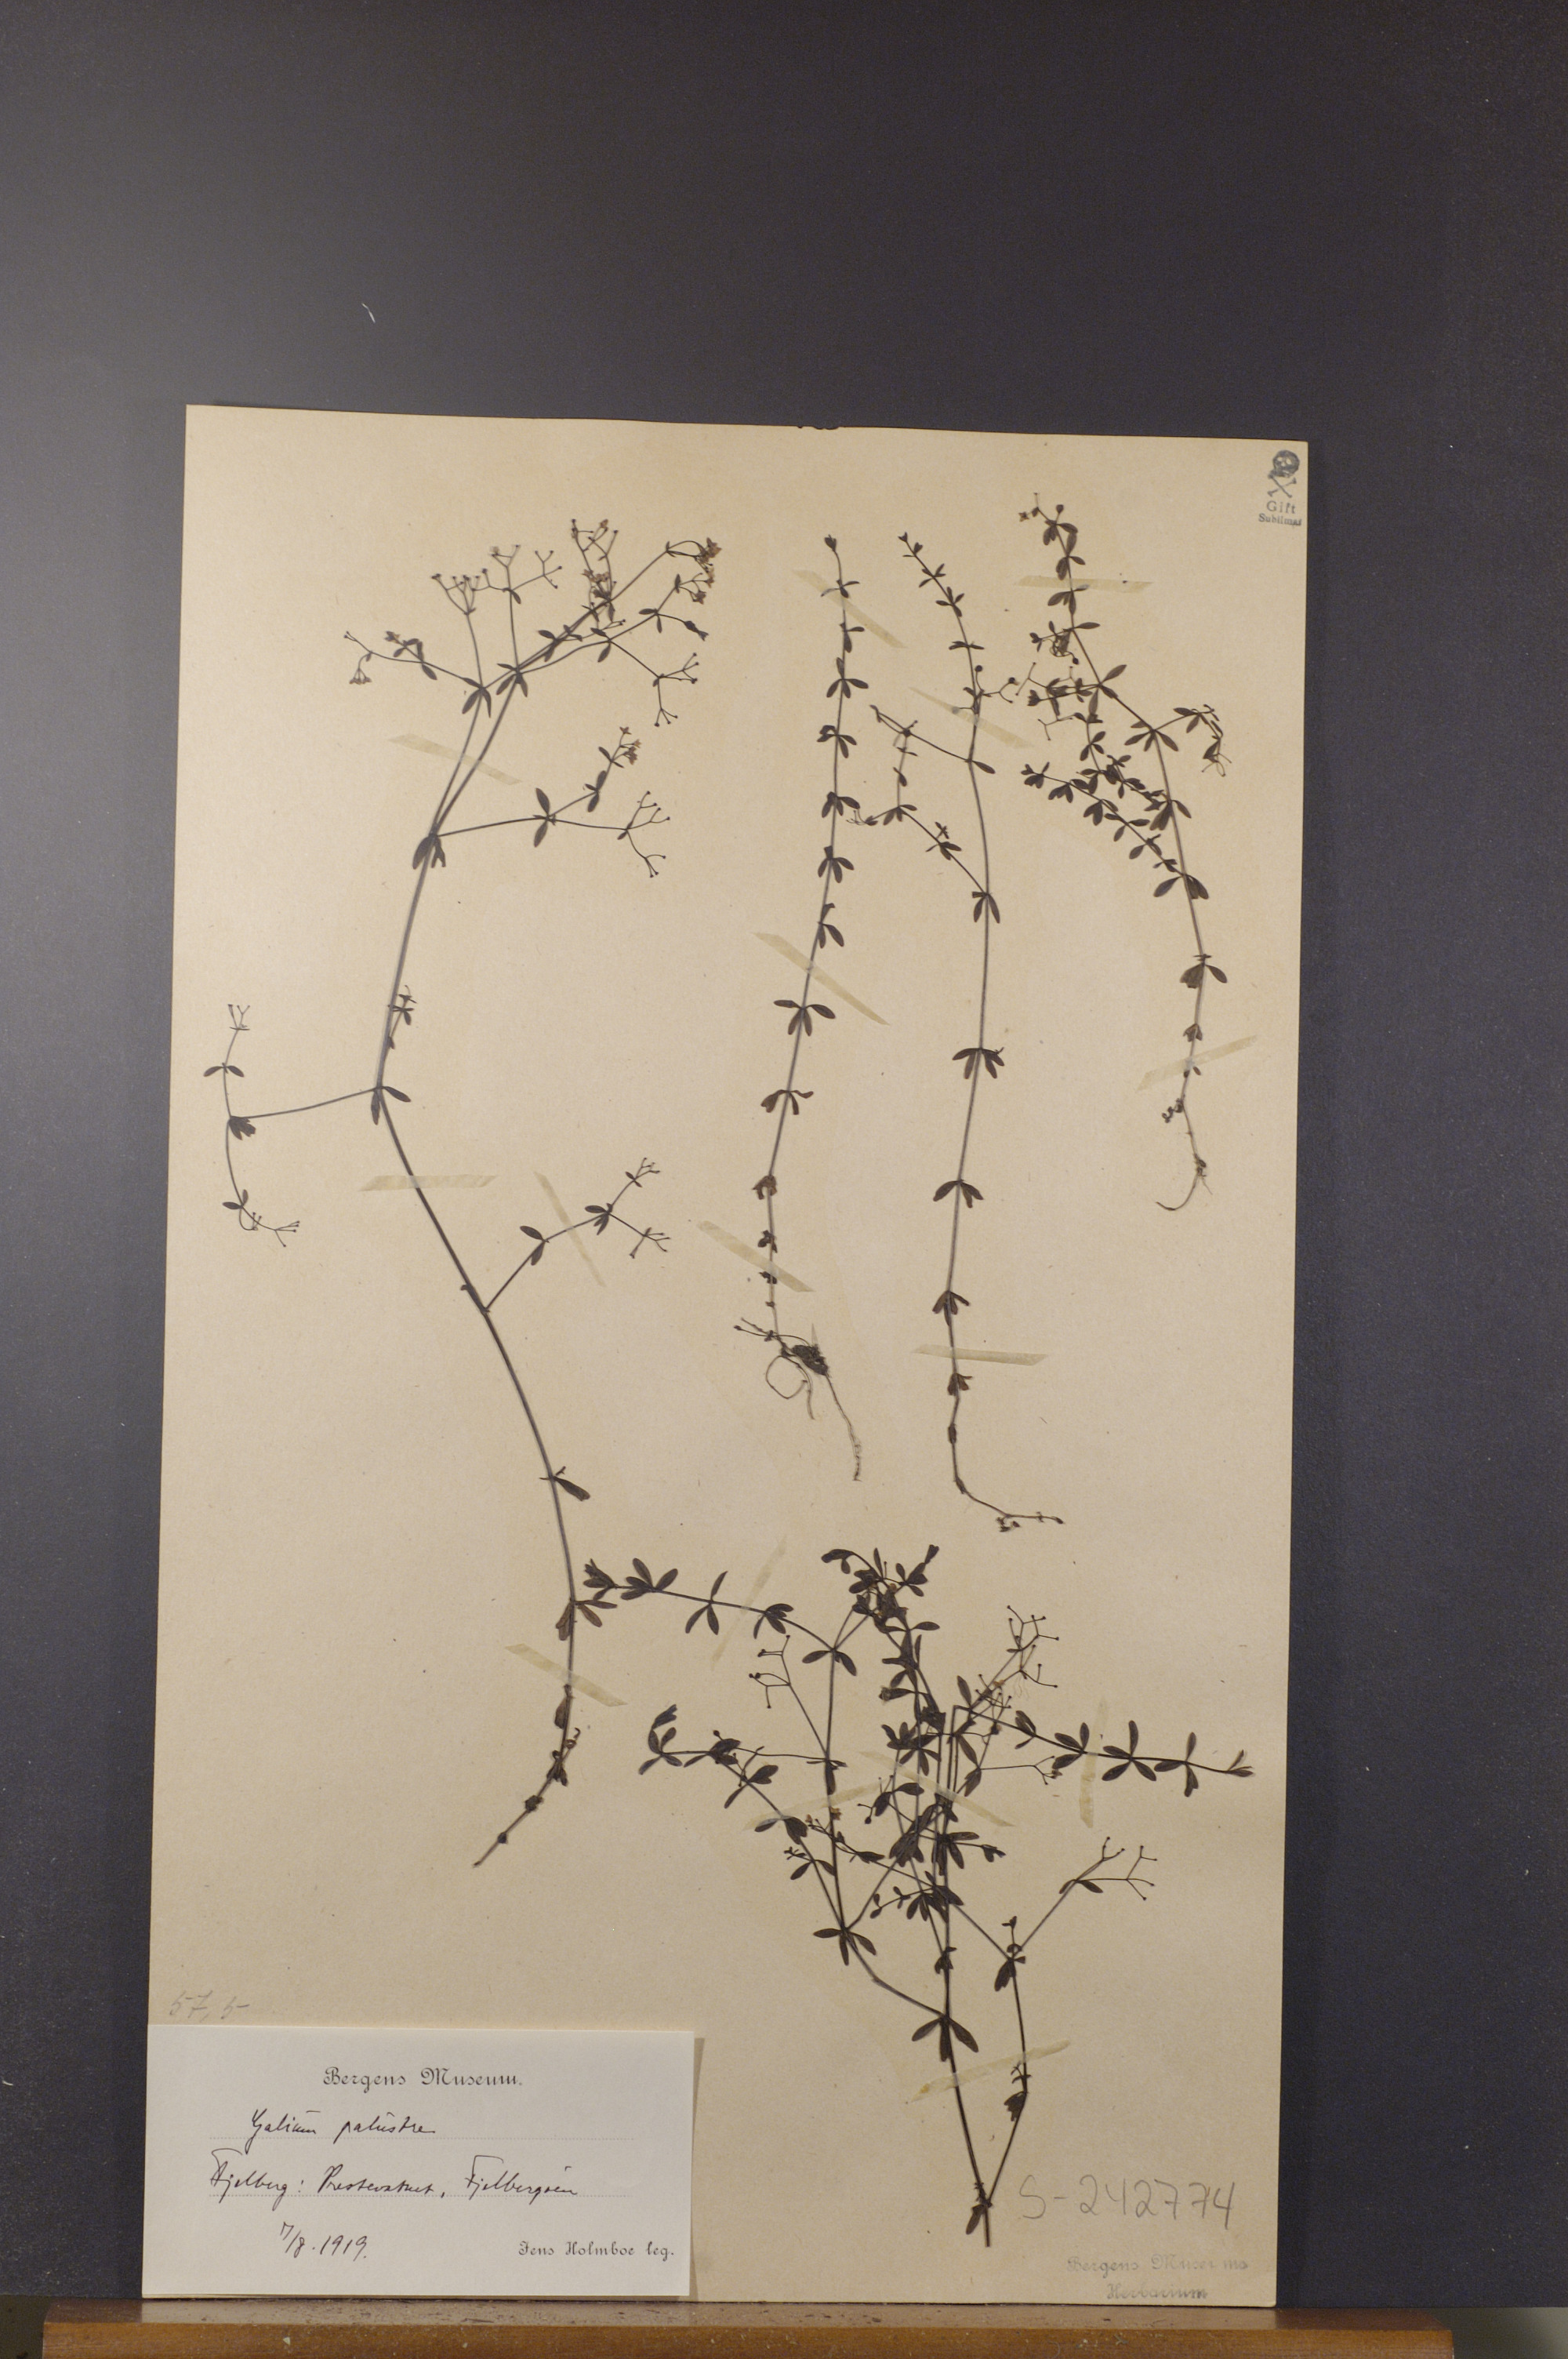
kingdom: Plantae
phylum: Tracheophyta
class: Magnoliopsida
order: Gentianales
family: Rubiaceae
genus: Galium
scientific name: Galium palustre
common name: Common marsh-bedstraw
